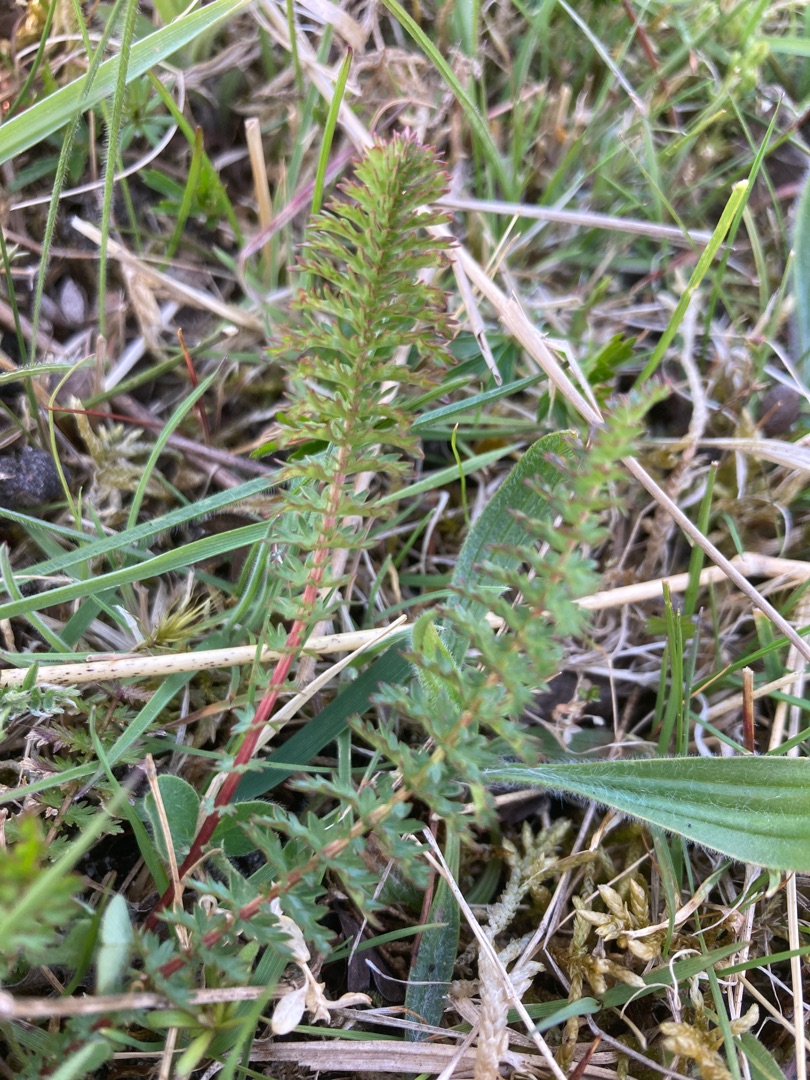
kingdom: Plantae
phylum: Tracheophyta
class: Magnoliopsida
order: Rosales
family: Rosaceae
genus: Filipendula
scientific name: Filipendula vulgaris
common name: Knoldet mjødurt
